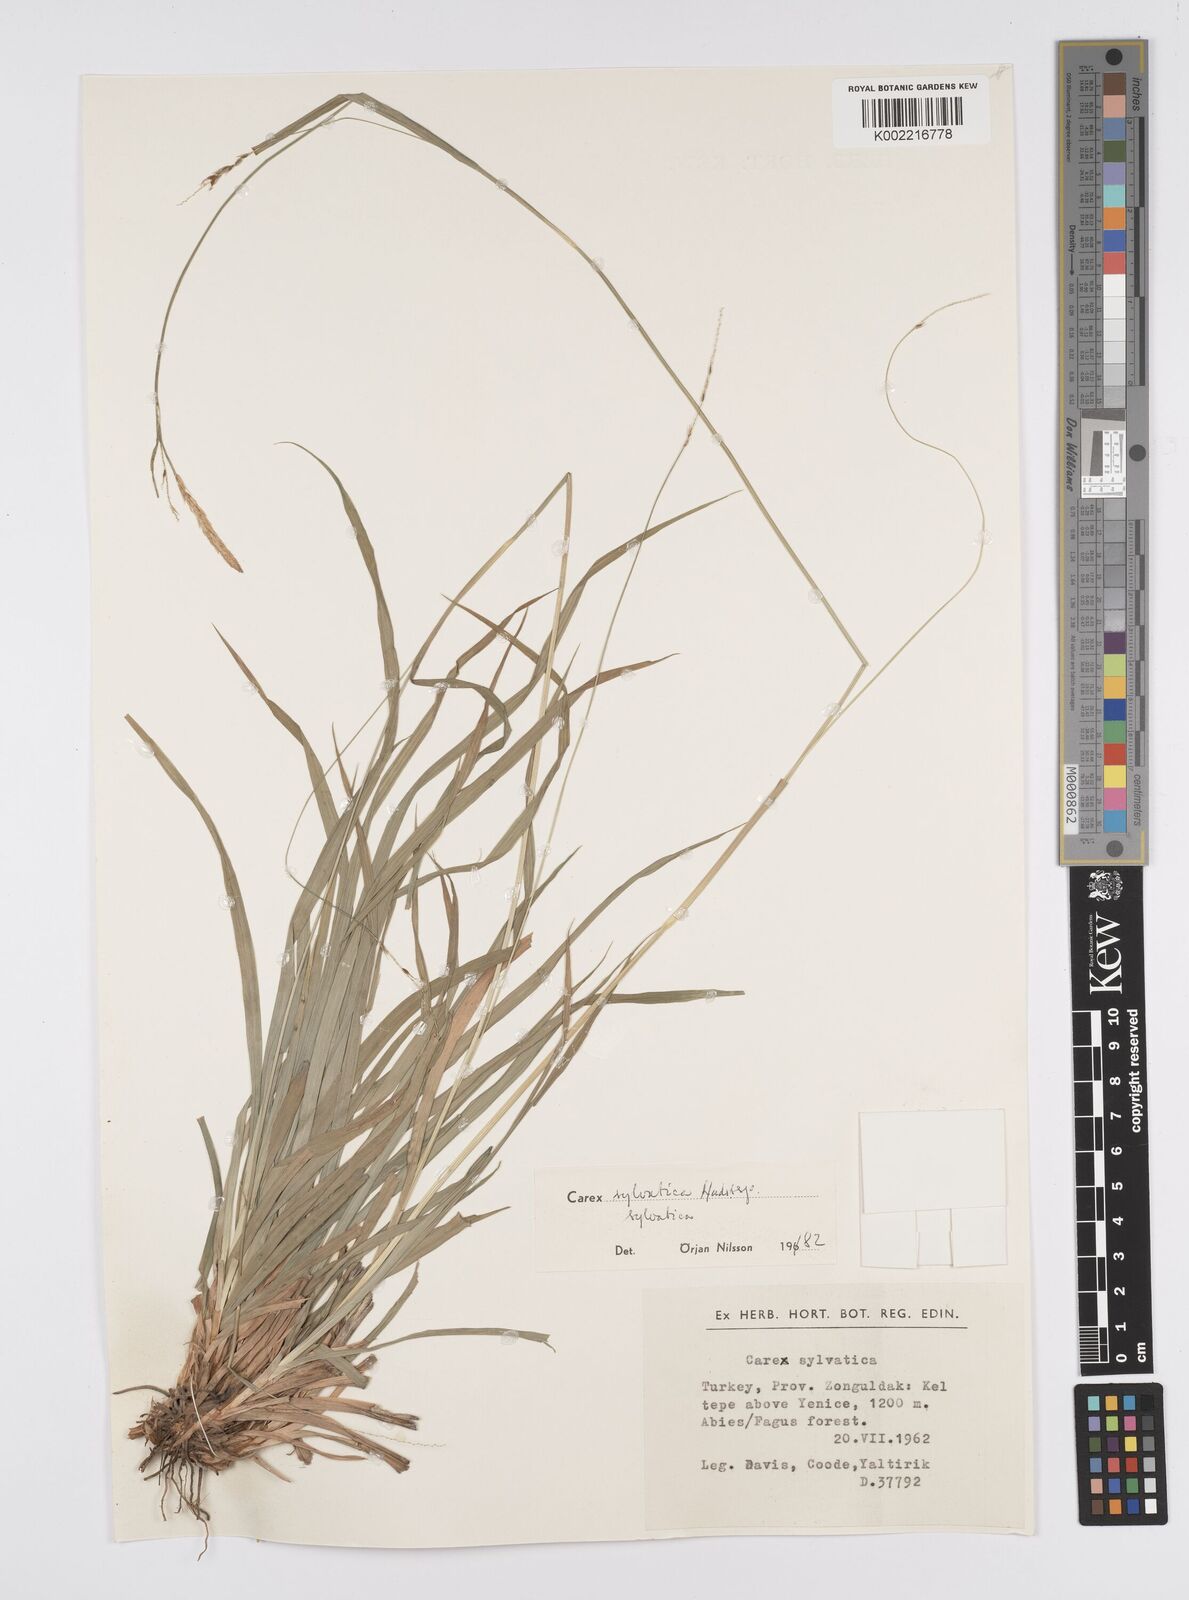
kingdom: Plantae
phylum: Tracheophyta
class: Liliopsida
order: Poales
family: Cyperaceae
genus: Carex
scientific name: Carex sylvatica
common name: Wood-sedge
